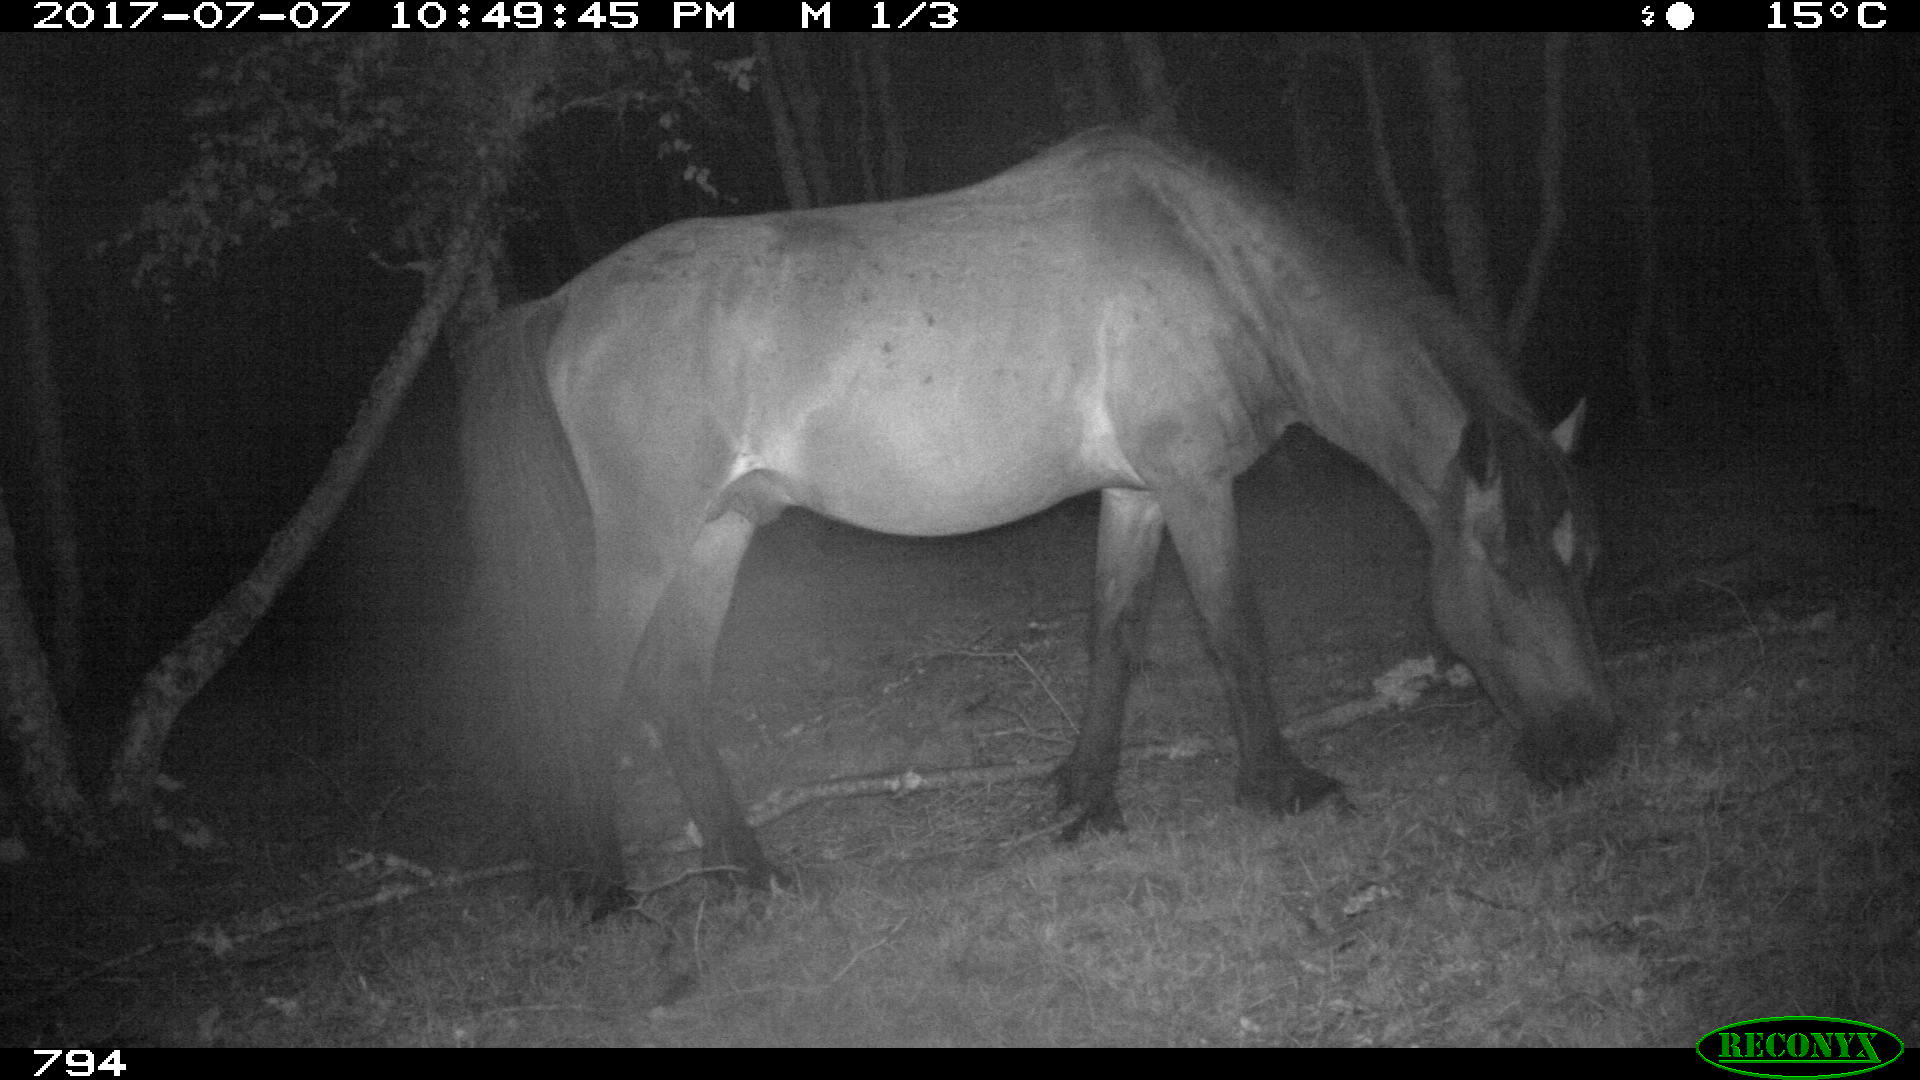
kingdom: Animalia
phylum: Chordata
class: Mammalia
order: Perissodactyla
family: Equidae
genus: Equus
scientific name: Equus caballus
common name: Horse
